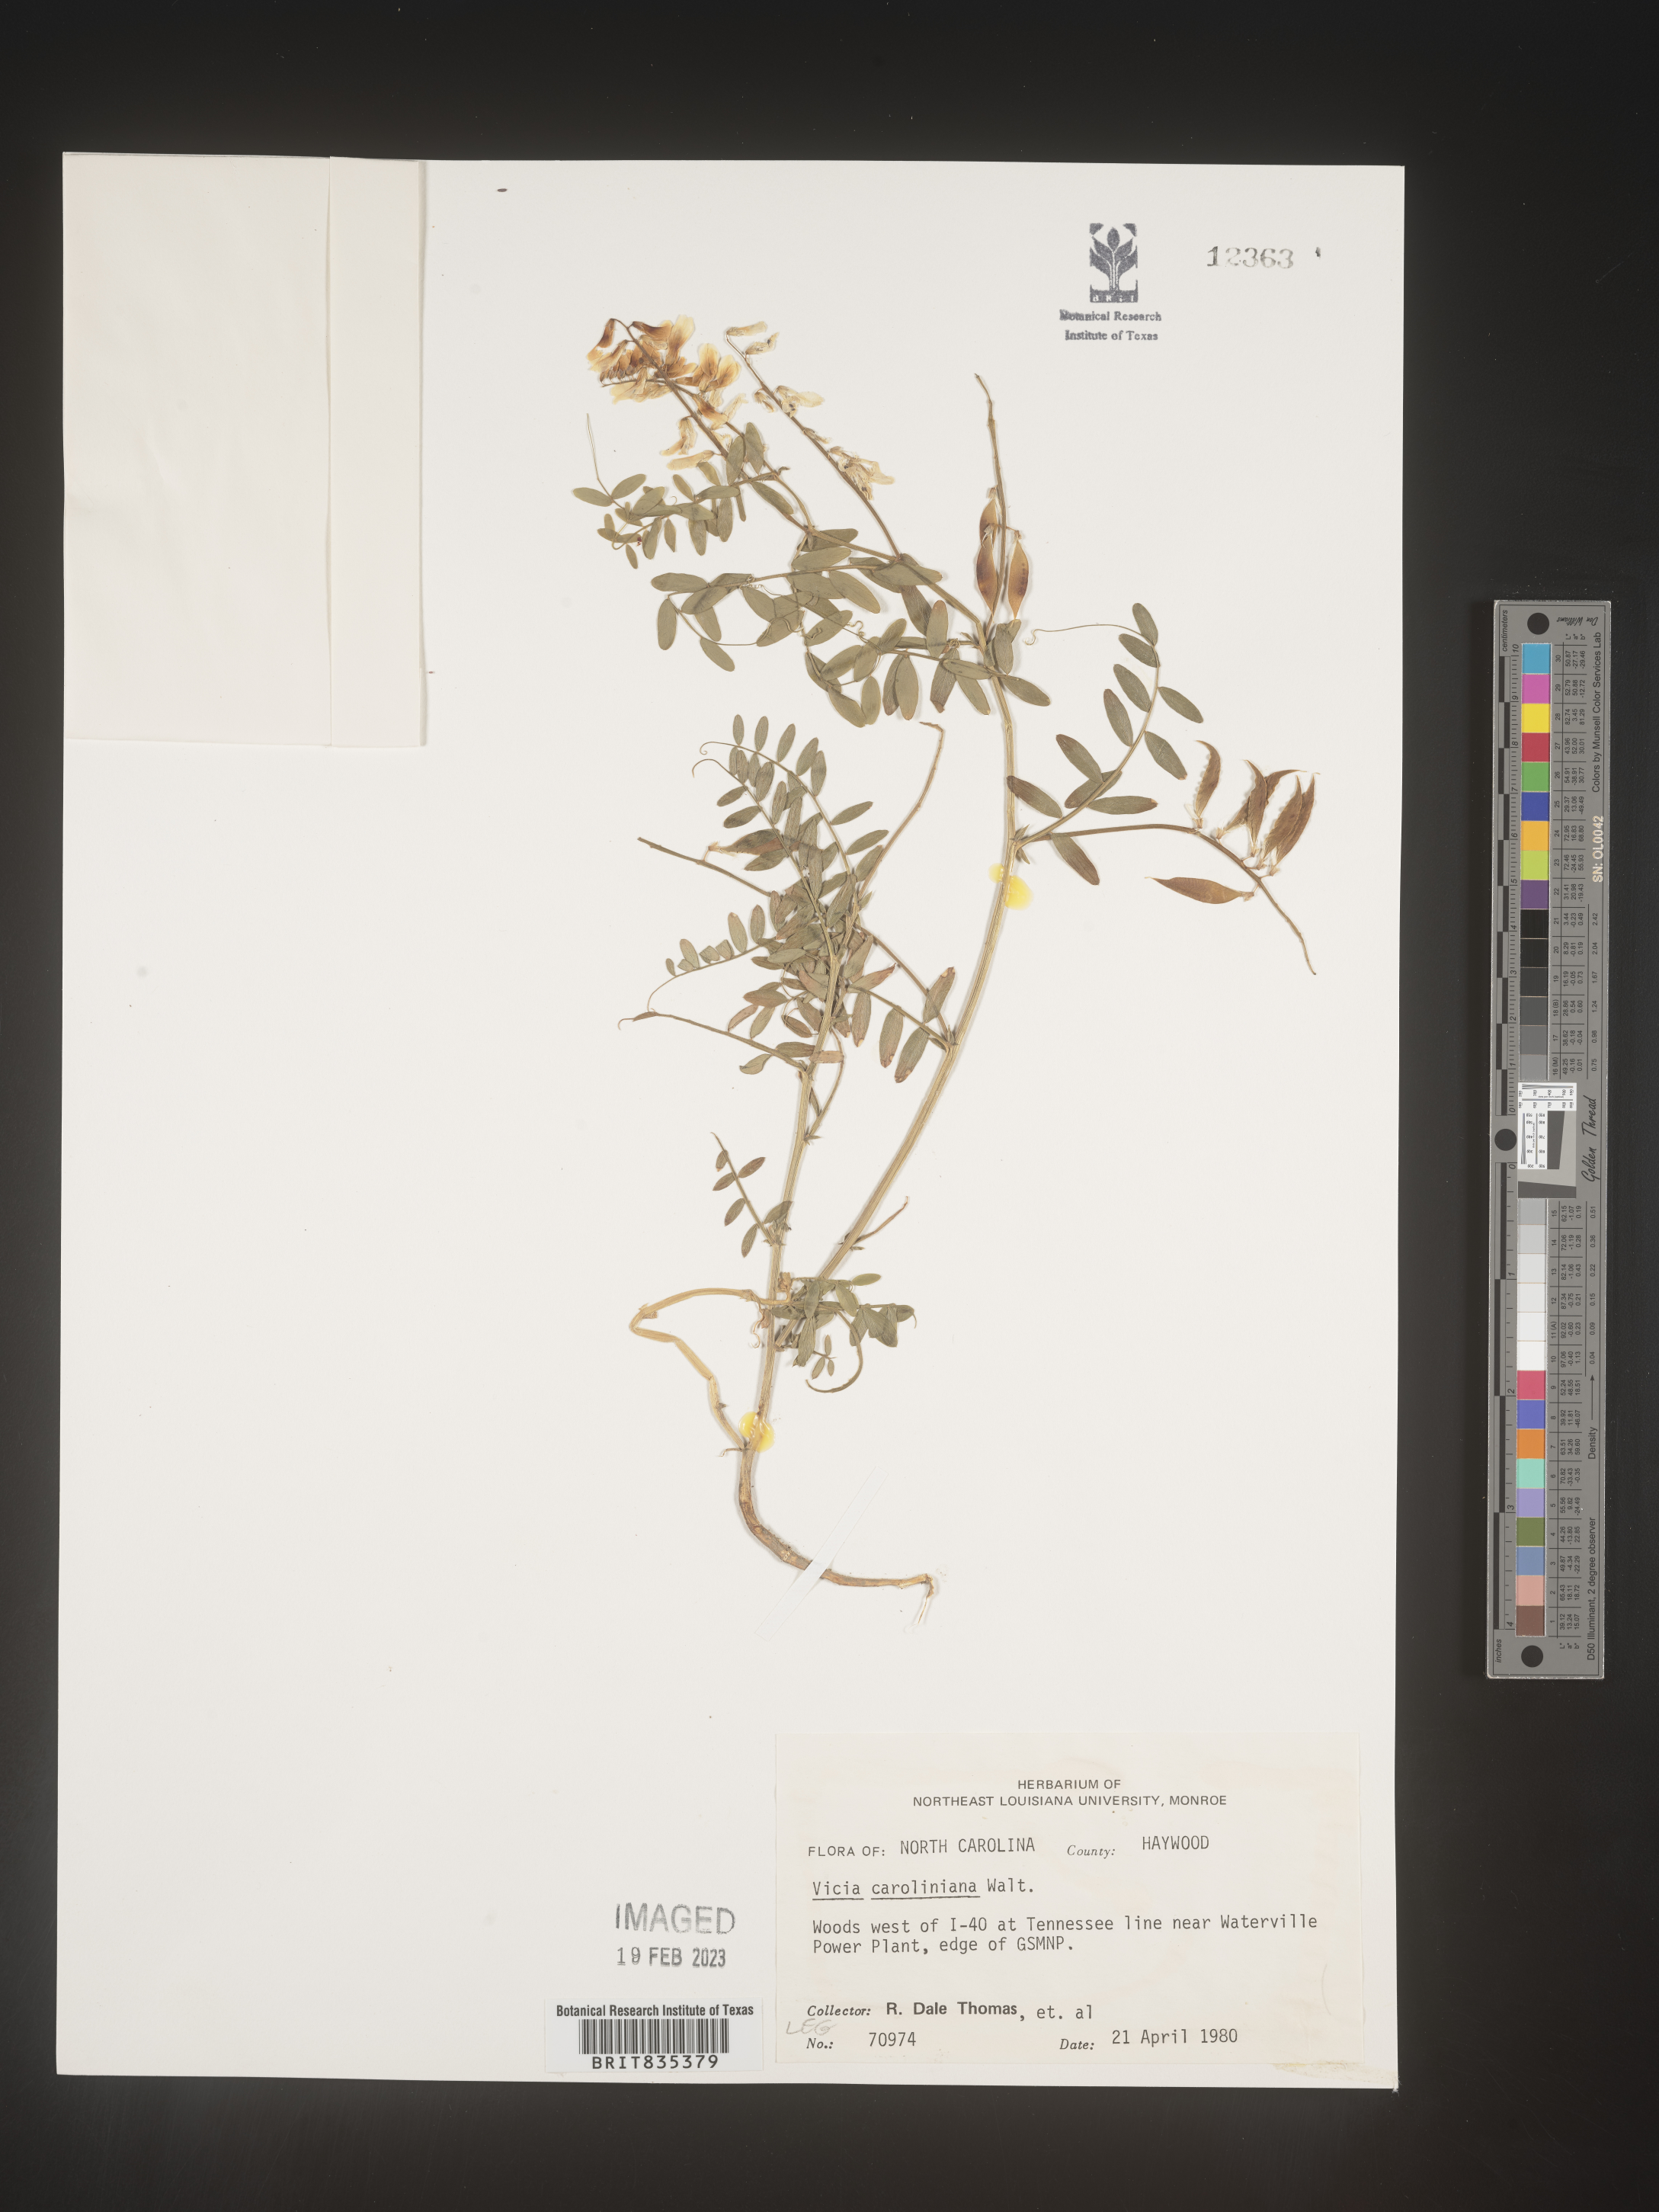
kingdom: Plantae
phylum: Tracheophyta
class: Magnoliopsida
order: Fabales
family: Fabaceae
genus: Vicia
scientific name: Vicia caroliniana
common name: Carolina vetch
